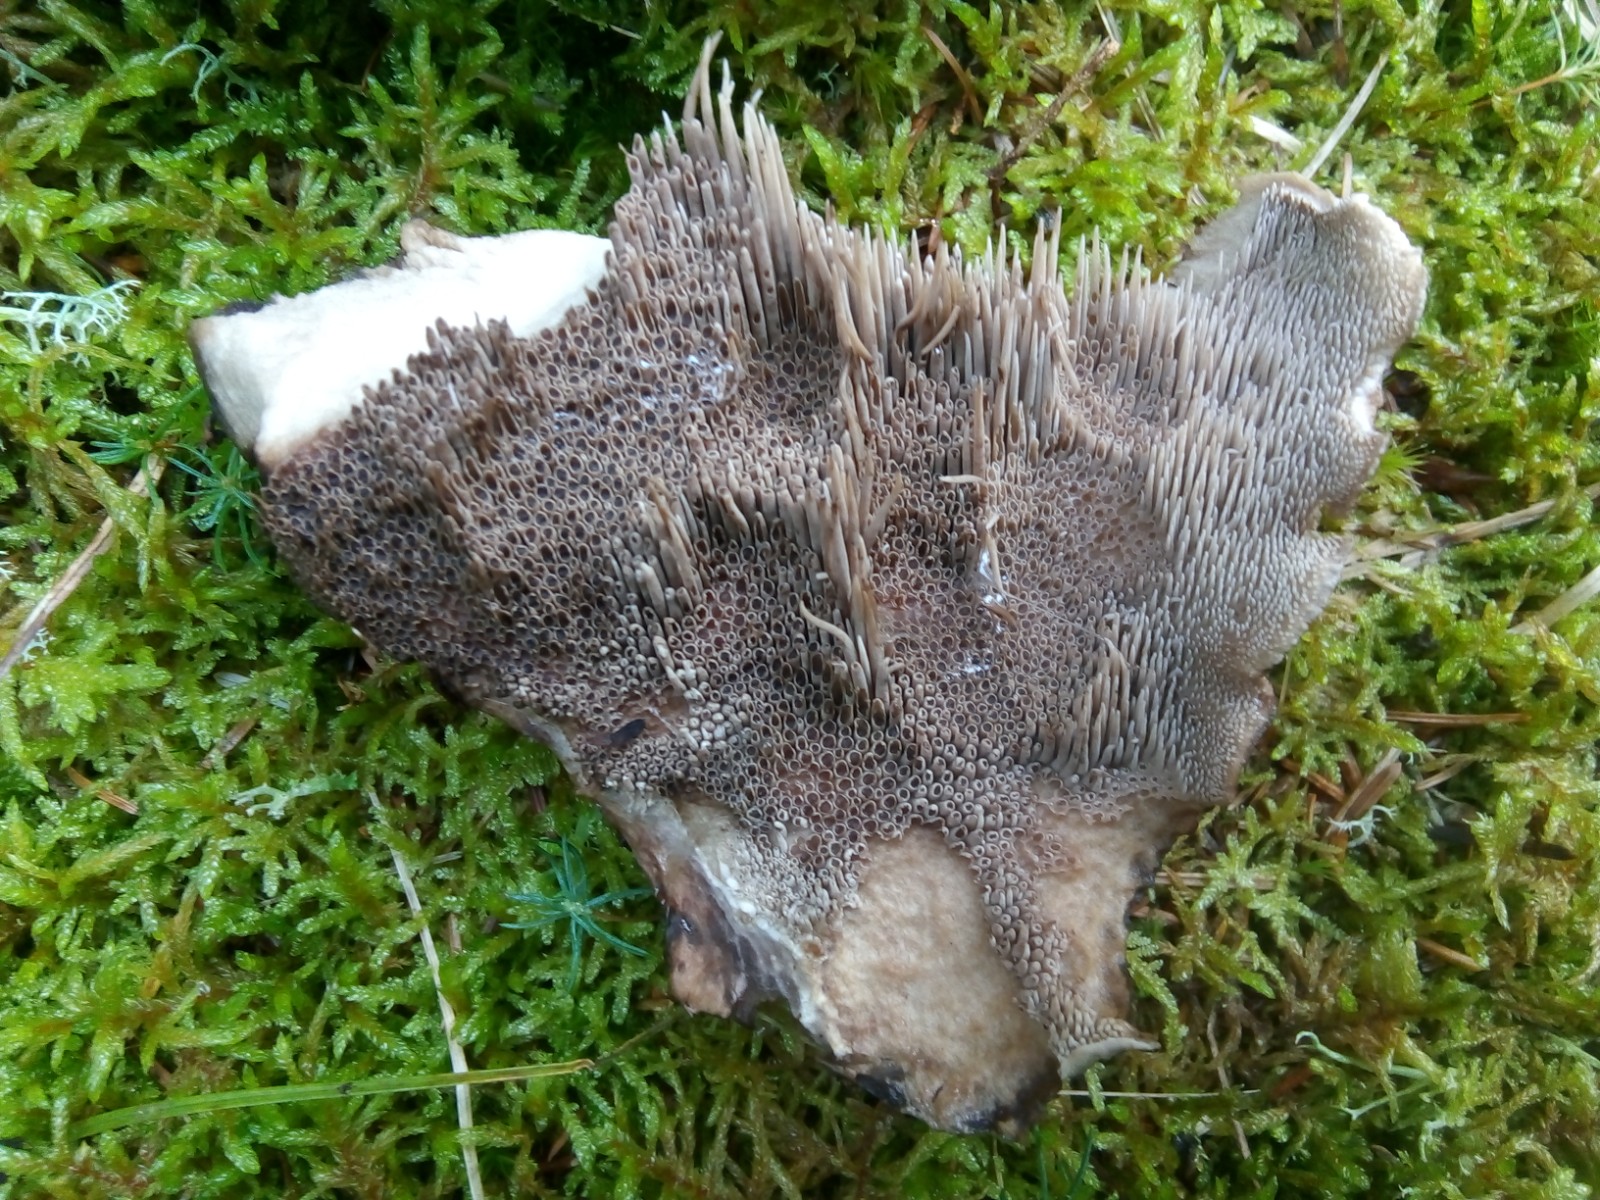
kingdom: Fungi
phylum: Basidiomycota
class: Agaricomycetes
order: Thelephorales
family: Bankeraceae
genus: Sarcodon
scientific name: Sarcodon imbricatus
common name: skællet kødpigsvamp
